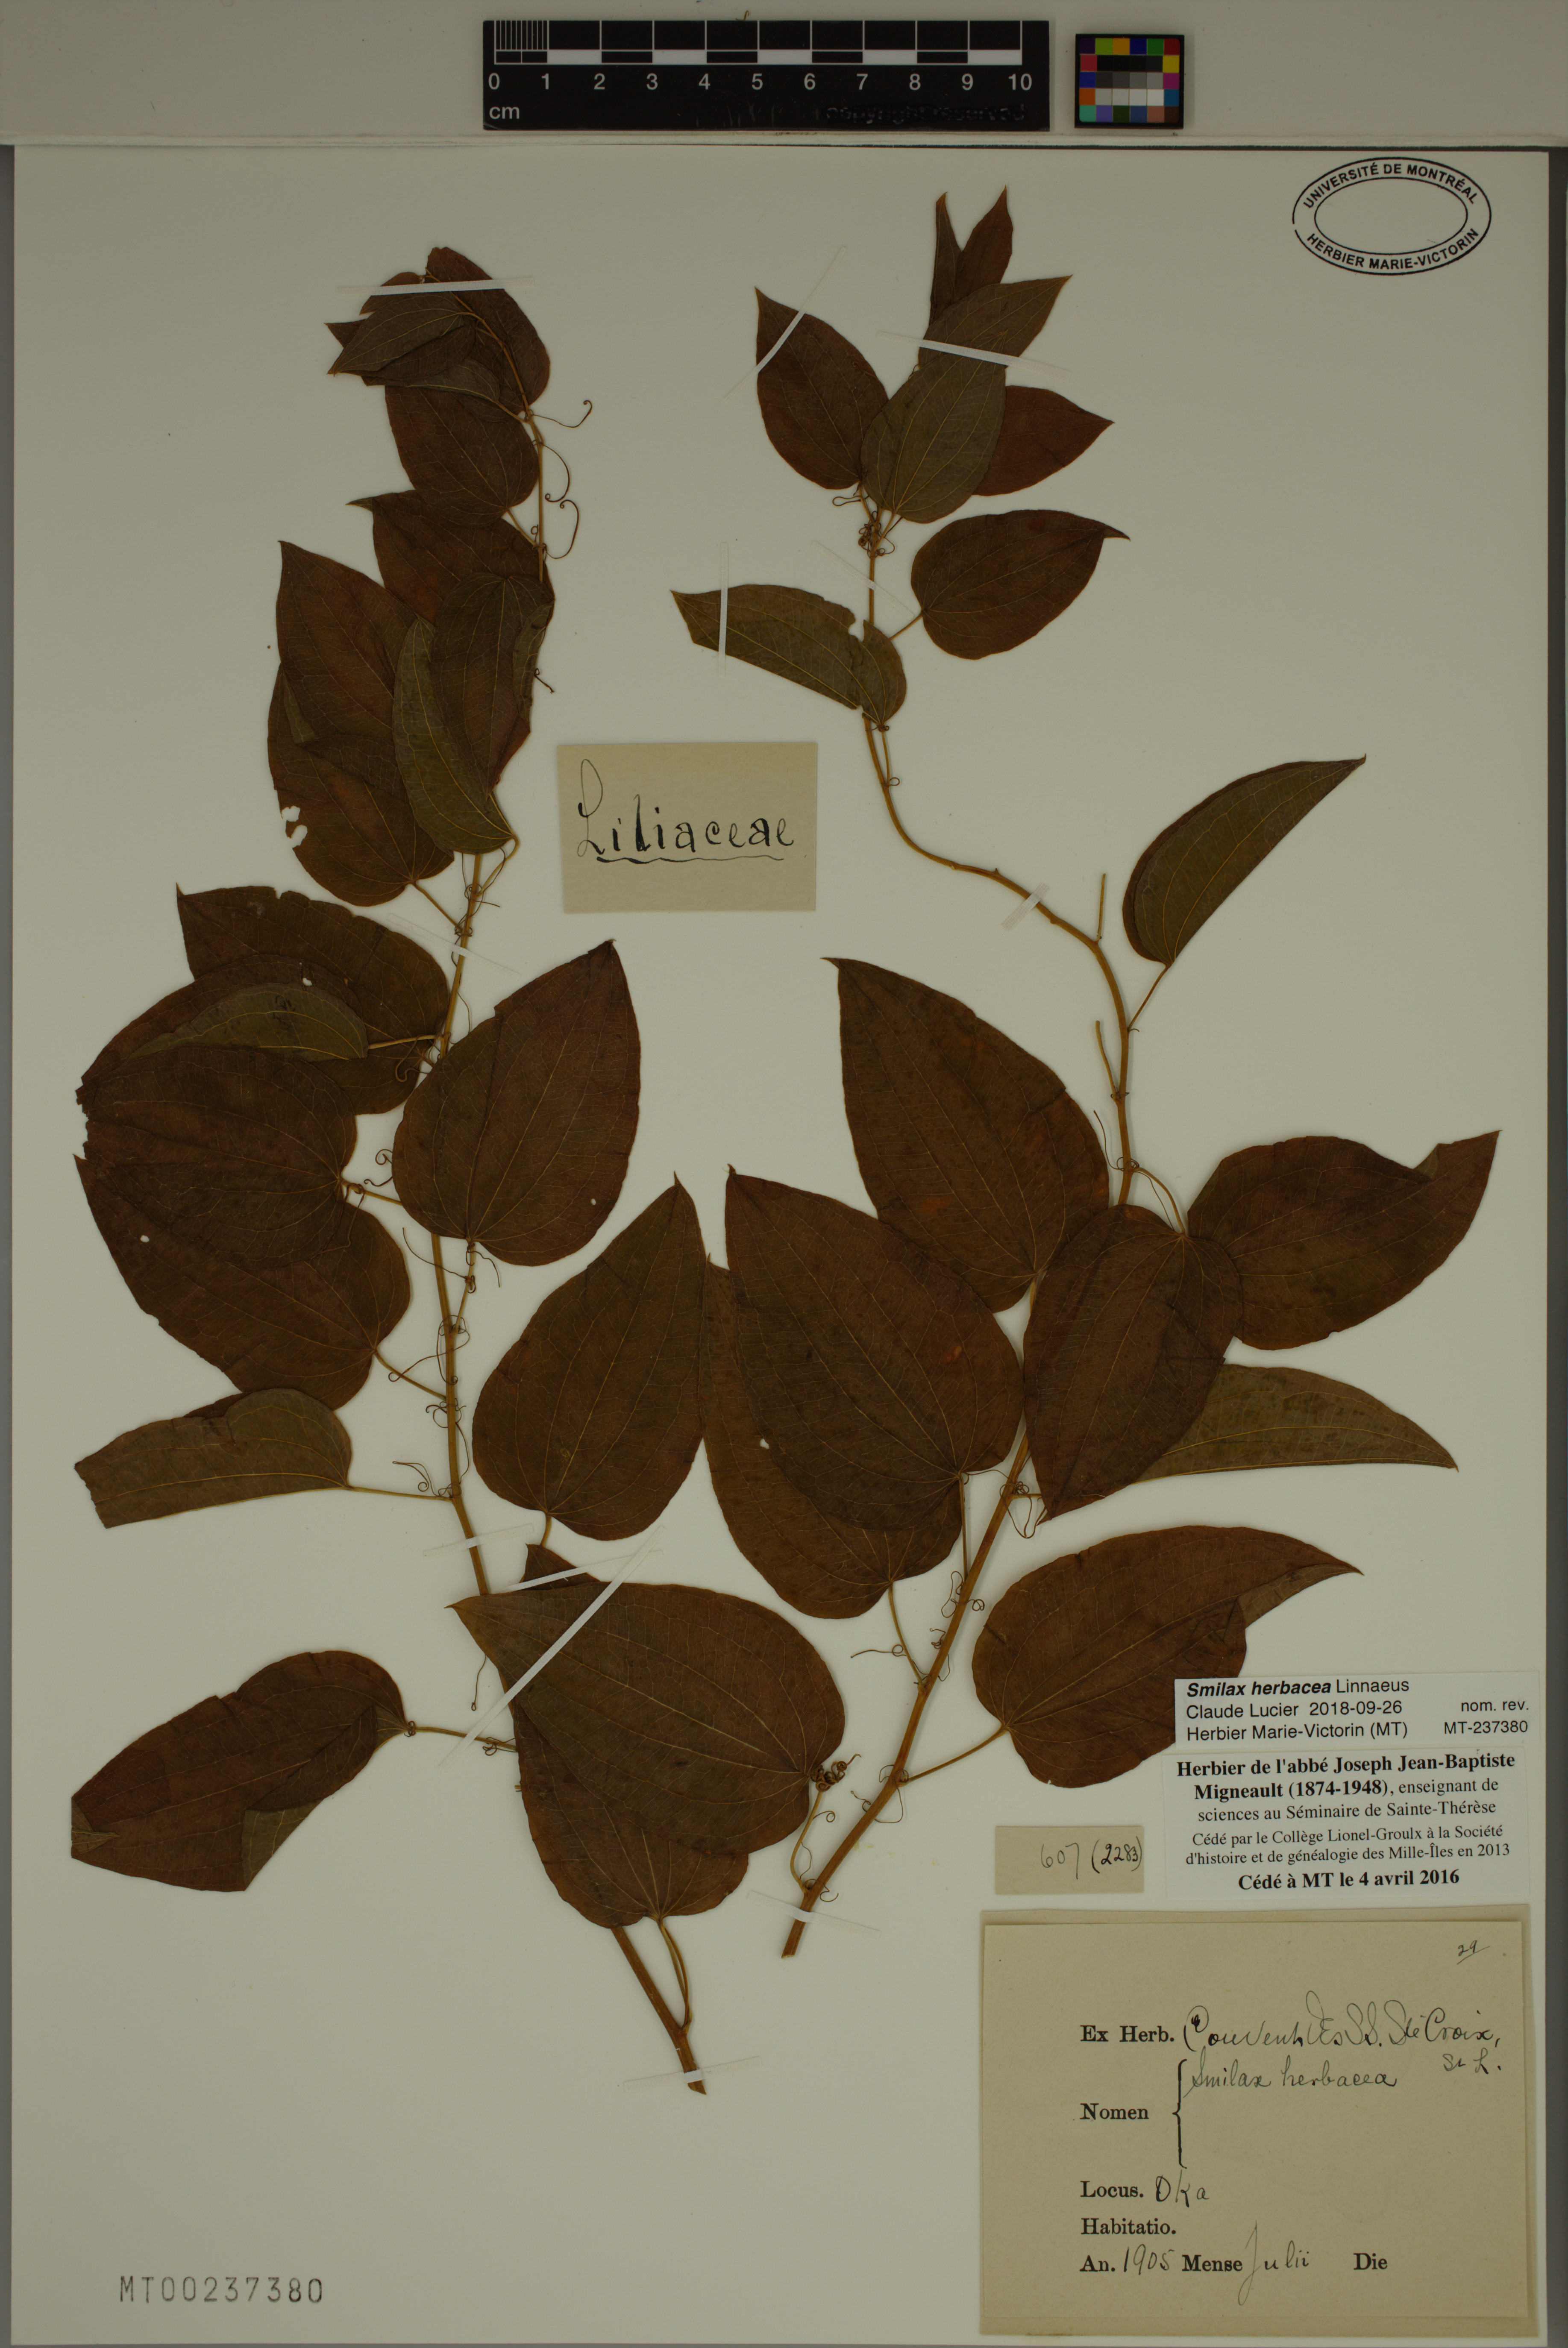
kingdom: Plantae
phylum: Tracheophyta
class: Liliopsida
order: Liliales
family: Smilacaceae
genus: Smilax
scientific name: Smilax herbacea
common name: Jacob's-ladder
